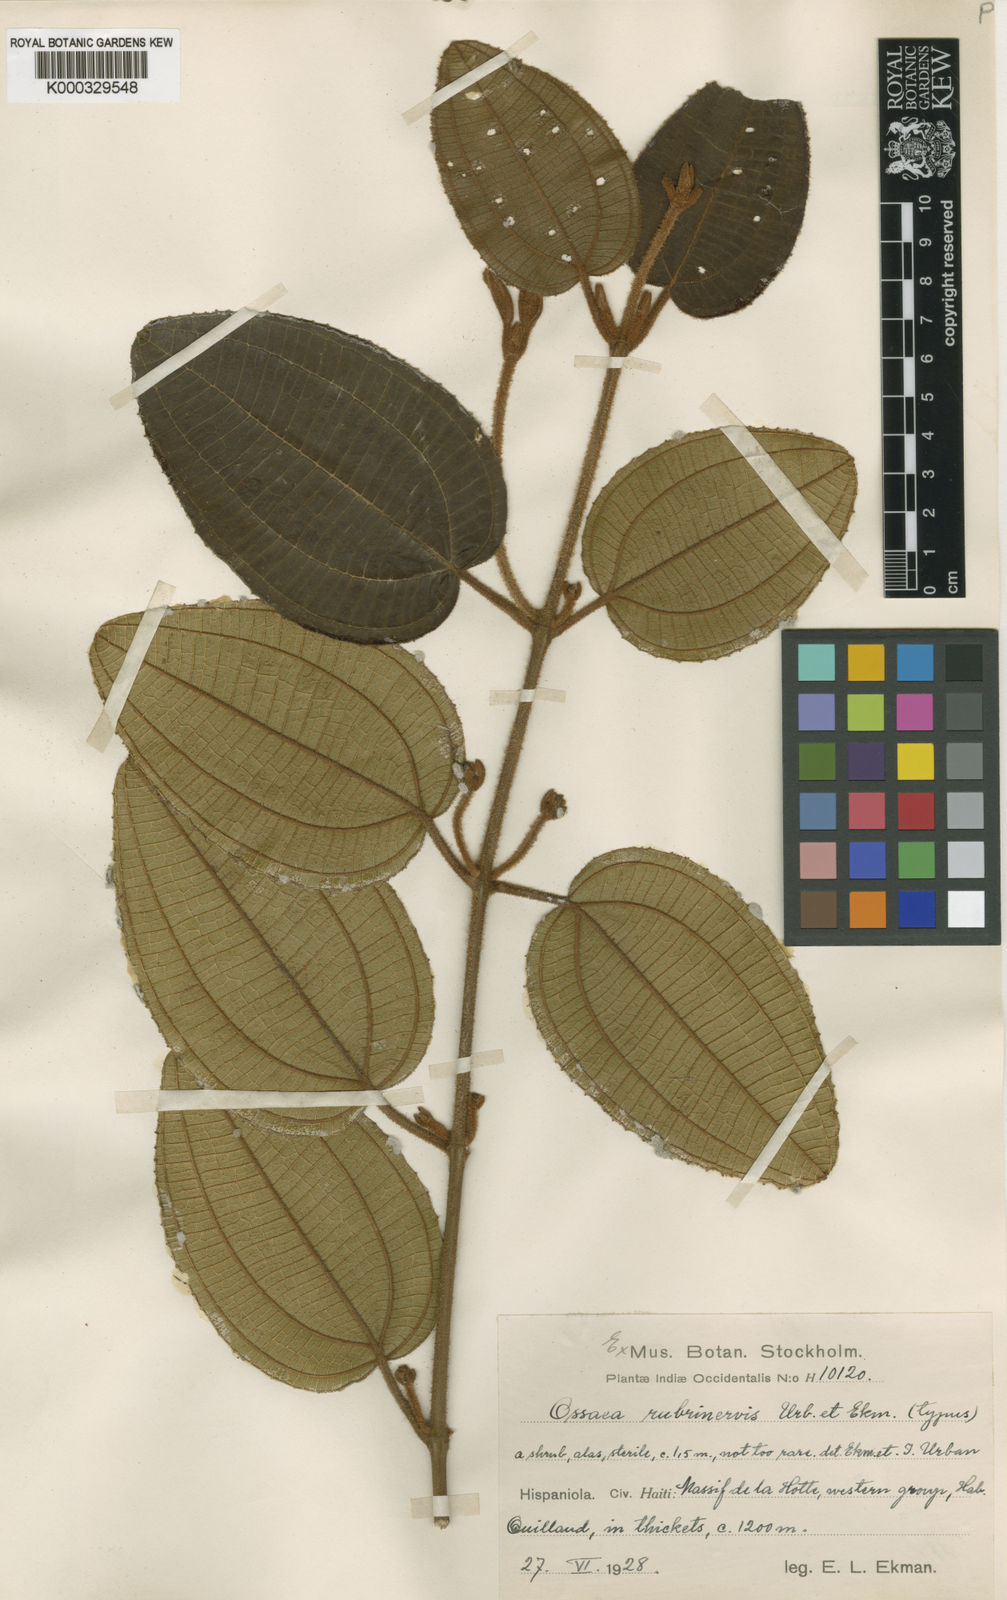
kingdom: Plantae
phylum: Tracheophyta
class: Magnoliopsida
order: Myrtales
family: Melastomataceae
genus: Miconia
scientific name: Miconia rufinervis
